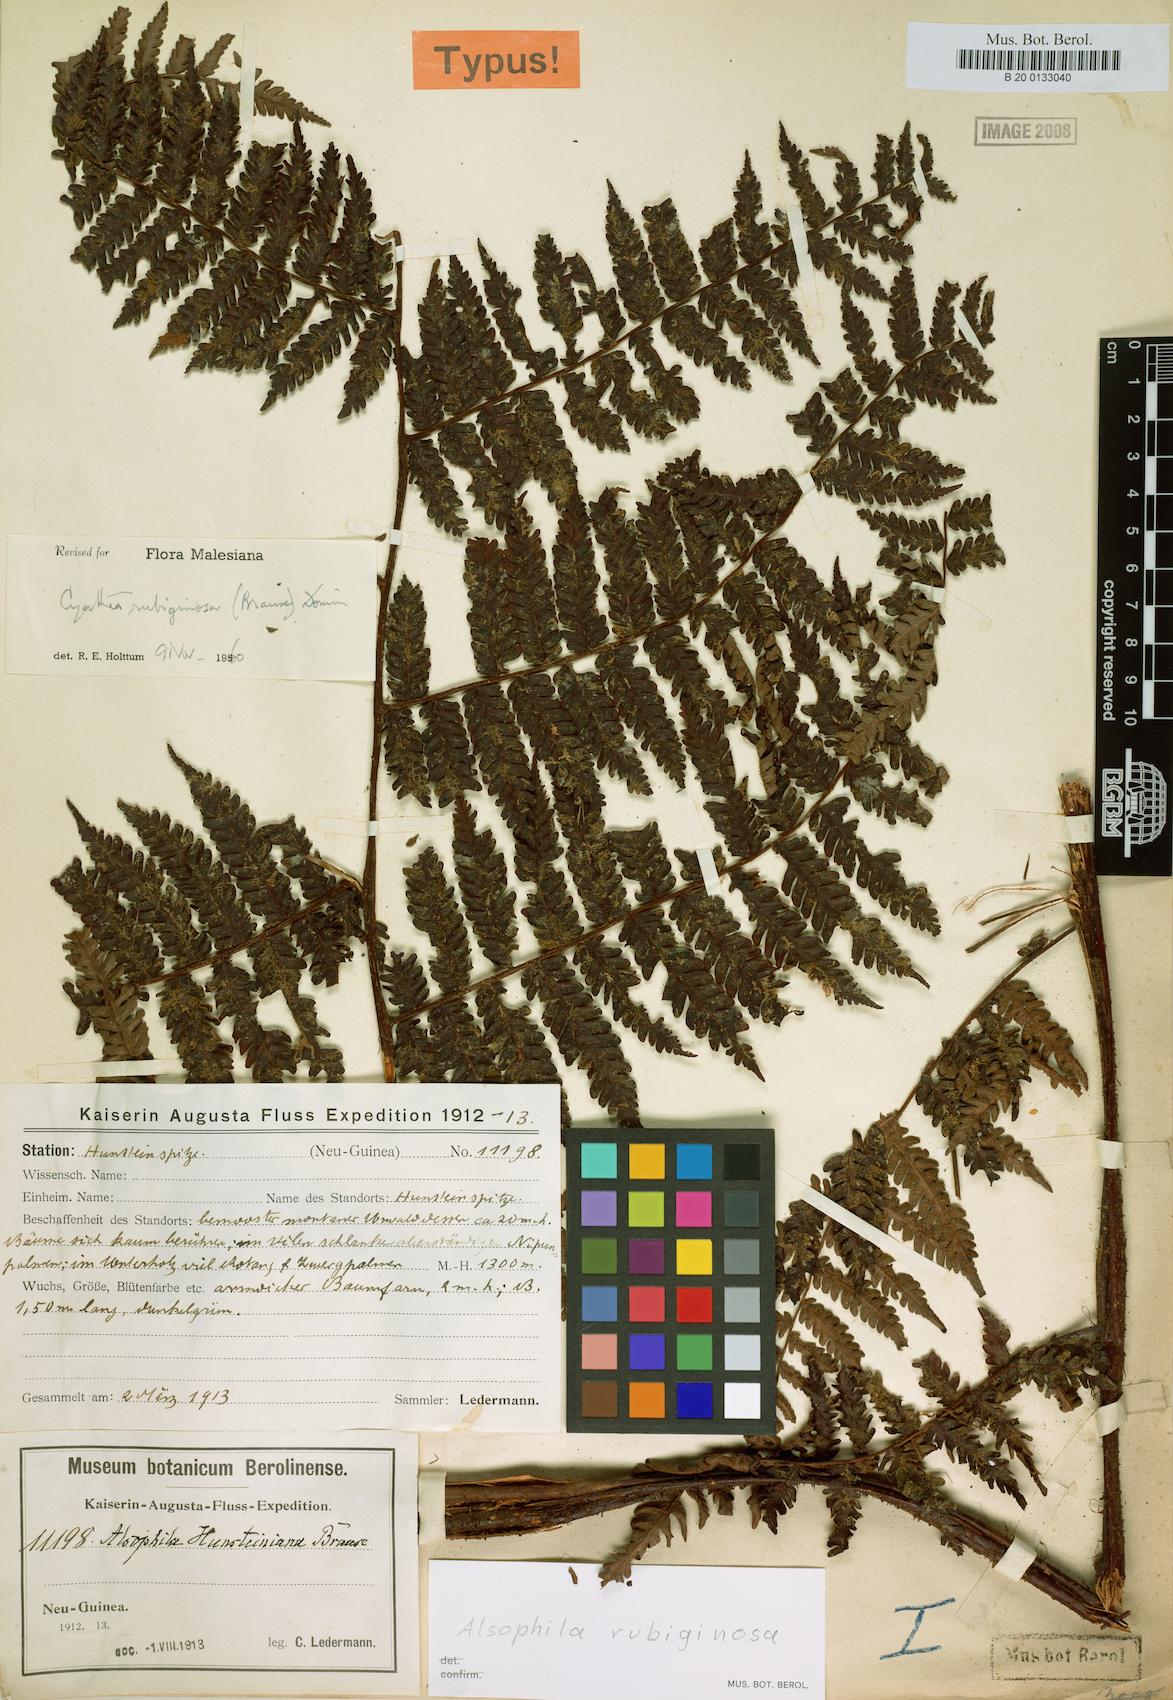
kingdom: Plantae
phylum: Tracheophyta
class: Polypodiopsida
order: Cyatheales
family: Cyatheaceae
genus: Alsophila
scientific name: Alsophila rubiginosa
